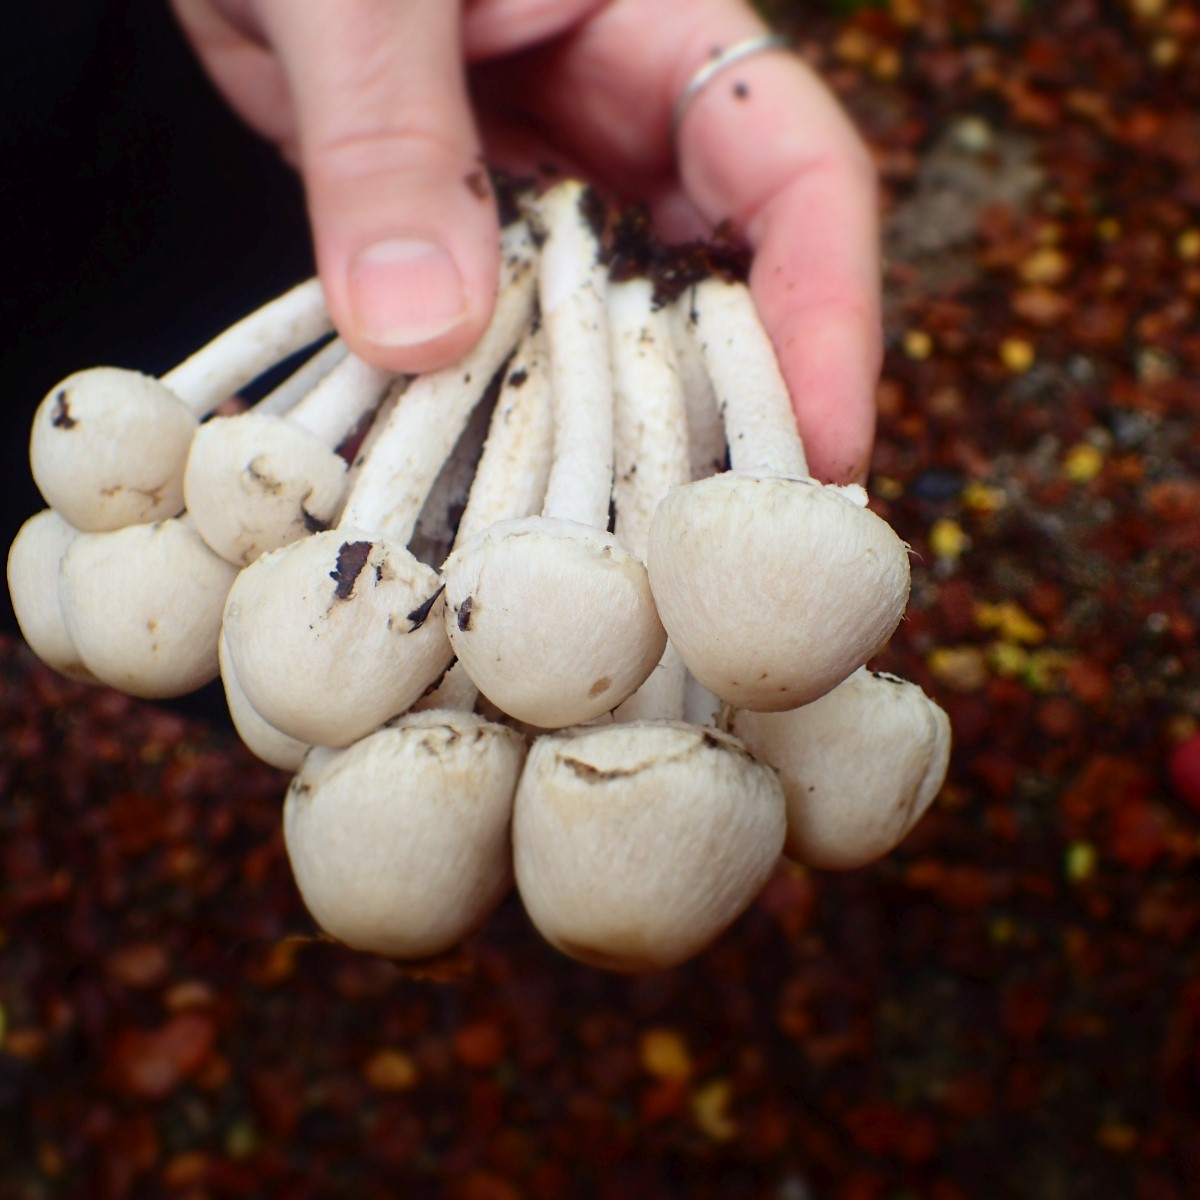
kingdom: Fungi
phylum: Basidiomycota
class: Agaricomycetes
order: Agaricales
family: Psathyrellaceae
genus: Psathyrella
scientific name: Psathyrella
